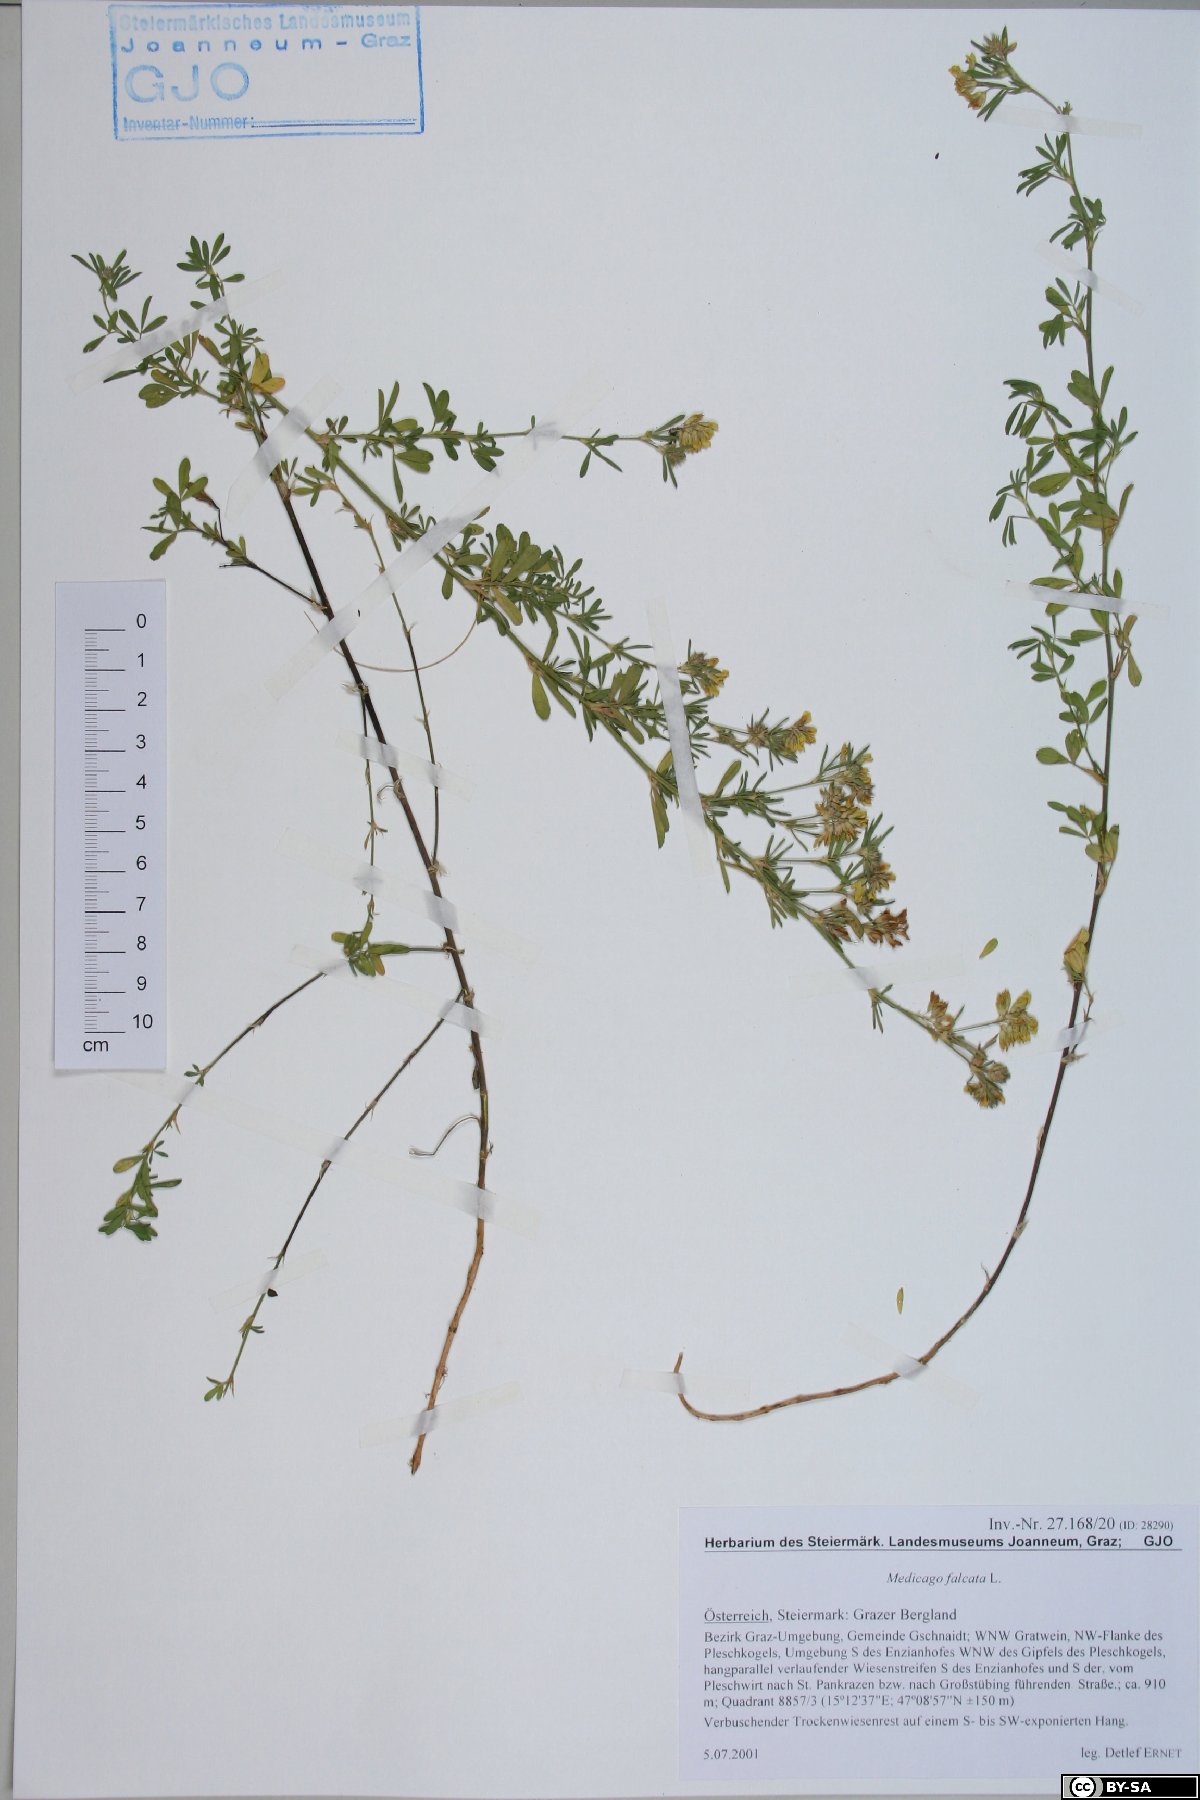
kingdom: Plantae
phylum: Tracheophyta
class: Magnoliopsida
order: Fabales
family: Fabaceae
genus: Medicago
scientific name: Medicago falcata
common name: Sickle medick
